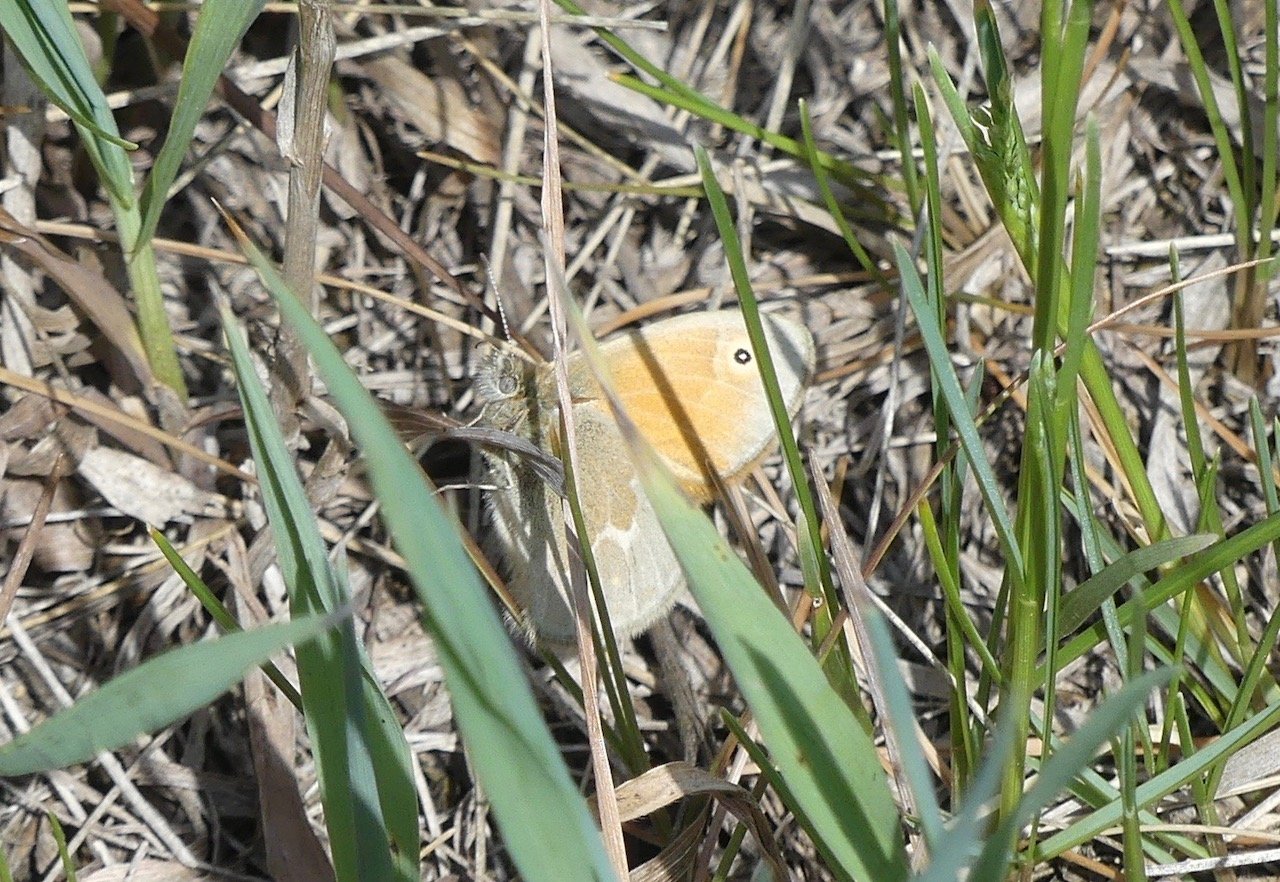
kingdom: Animalia
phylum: Arthropoda
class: Insecta
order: Lepidoptera
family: Nymphalidae
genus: Coenonympha
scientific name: Coenonympha tullia
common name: Large Heath
